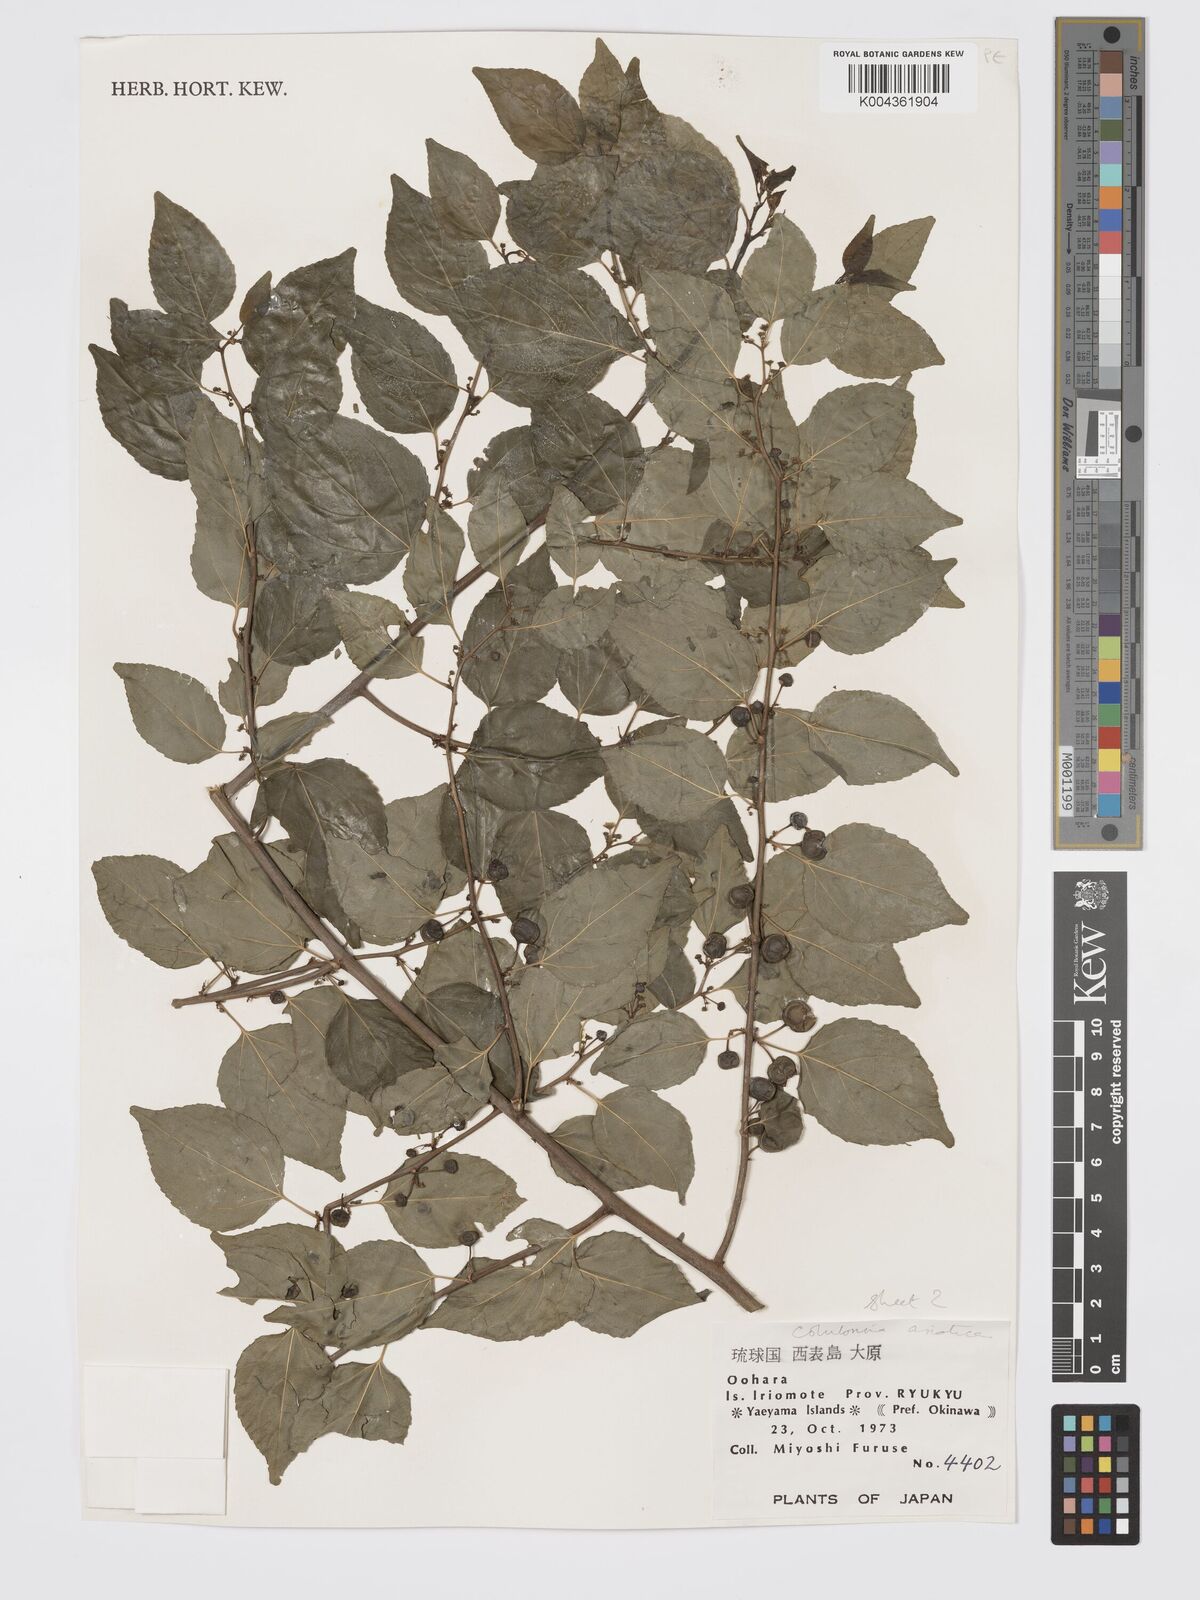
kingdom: Plantae
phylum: Tracheophyta
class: Magnoliopsida
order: Rosales
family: Rhamnaceae
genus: Colubrina
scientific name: Colubrina asiatica
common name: Asian nakedwood
